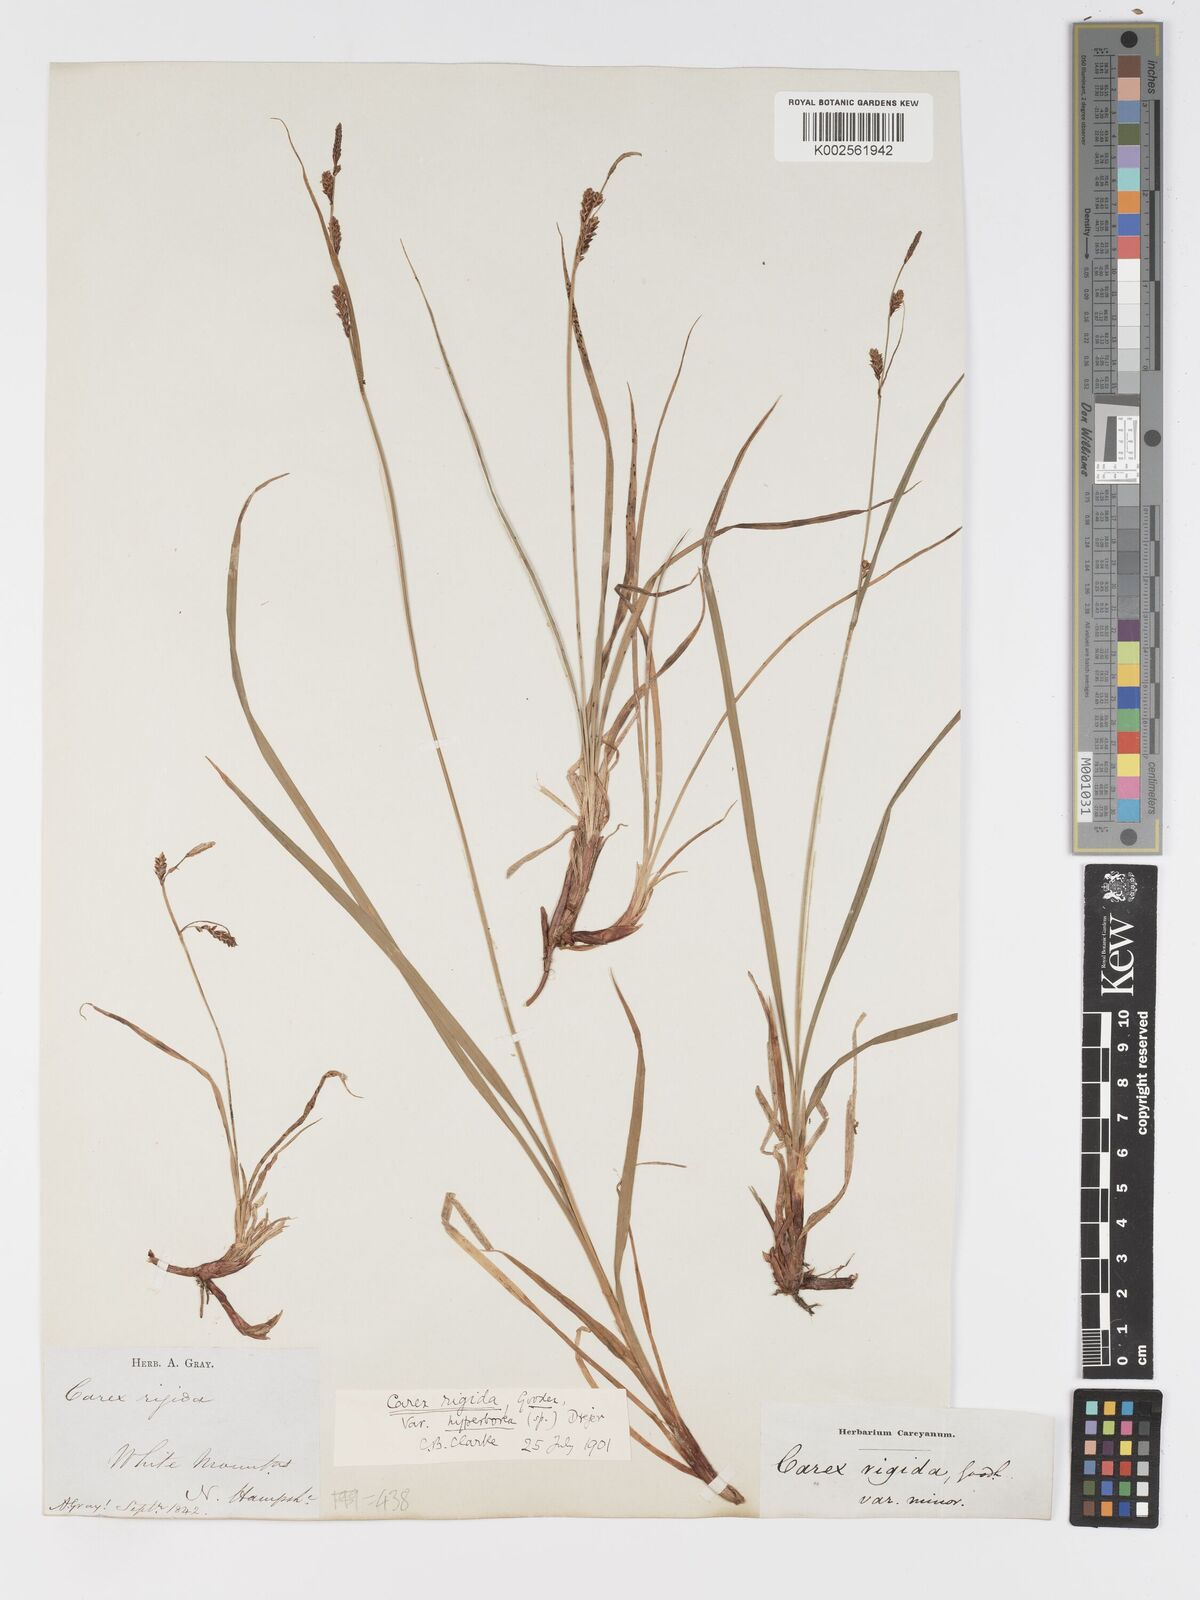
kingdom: Plantae
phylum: Tracheophyta
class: Liliopsida
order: Poales
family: Cyperaceae
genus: Carex
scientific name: Carex bigelowii
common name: Stiff sedge
